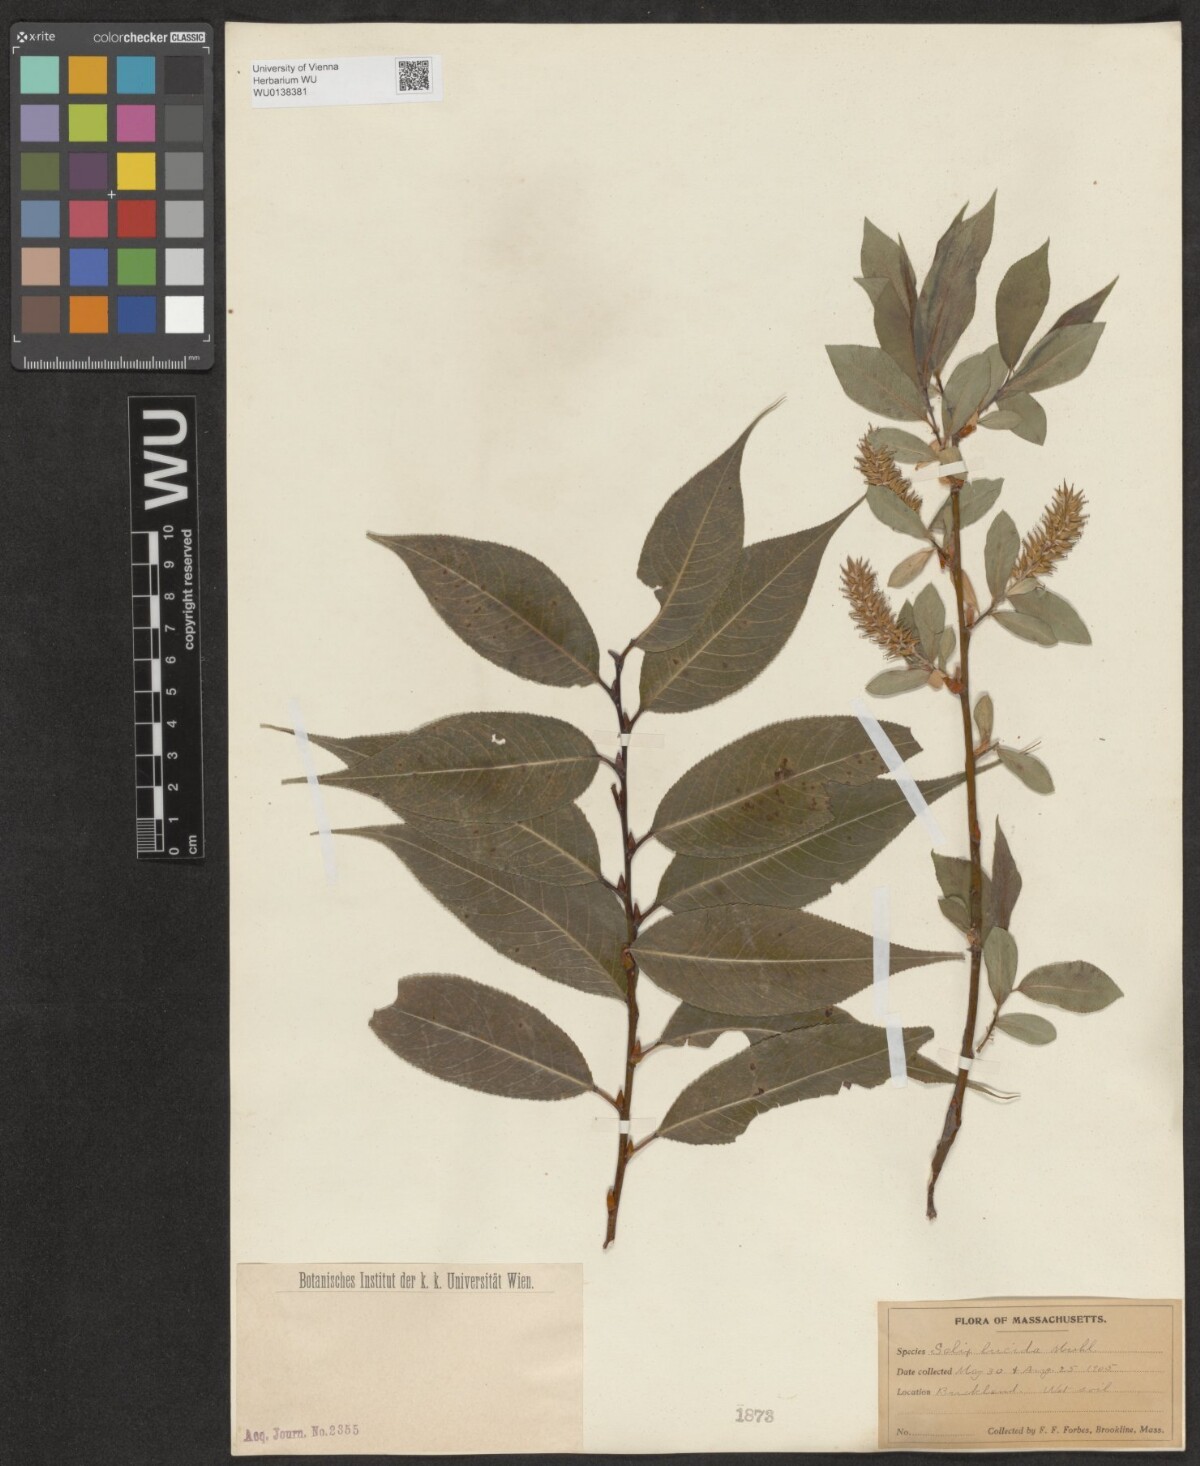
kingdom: Plantae
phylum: Tracheophyta
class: Magnoliopsida
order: Malpighiales
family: Salicaceae
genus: Salix
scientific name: Salix lucida
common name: Shining willow
